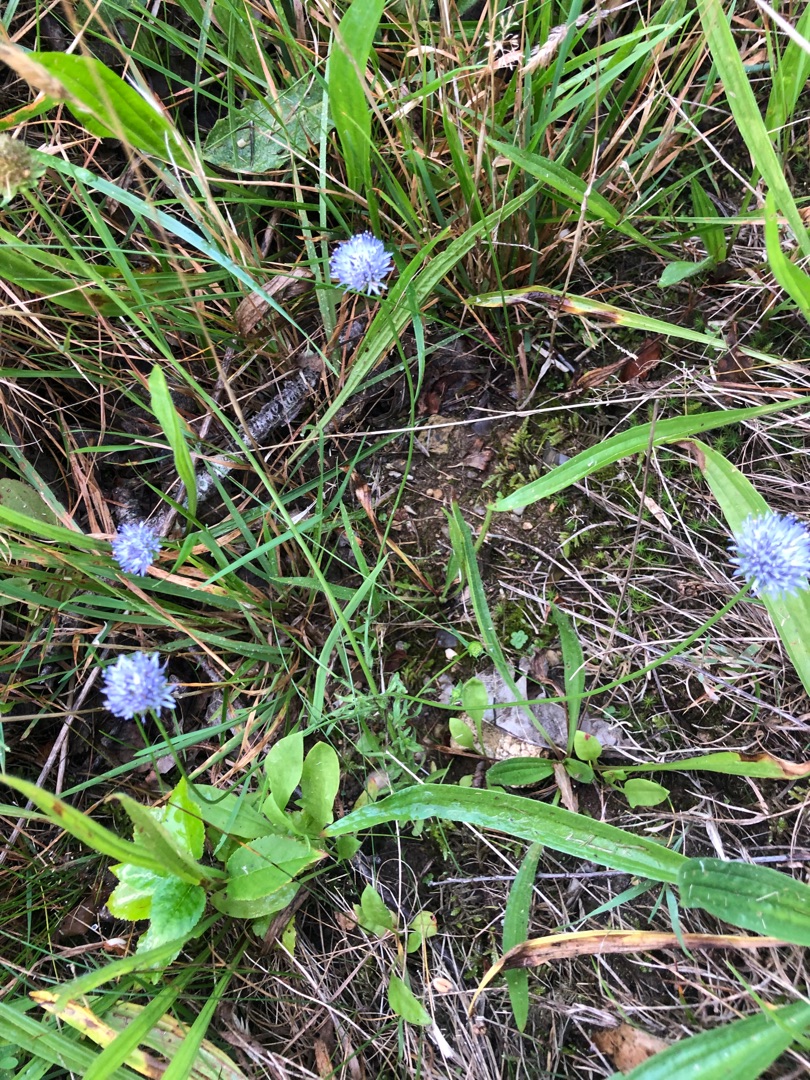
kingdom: Plantae
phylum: Tracheophyta
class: Magnoliopsida
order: Asterales
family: Campanulaceae
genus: Jasione
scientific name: Jasione montana
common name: Blåmunke
